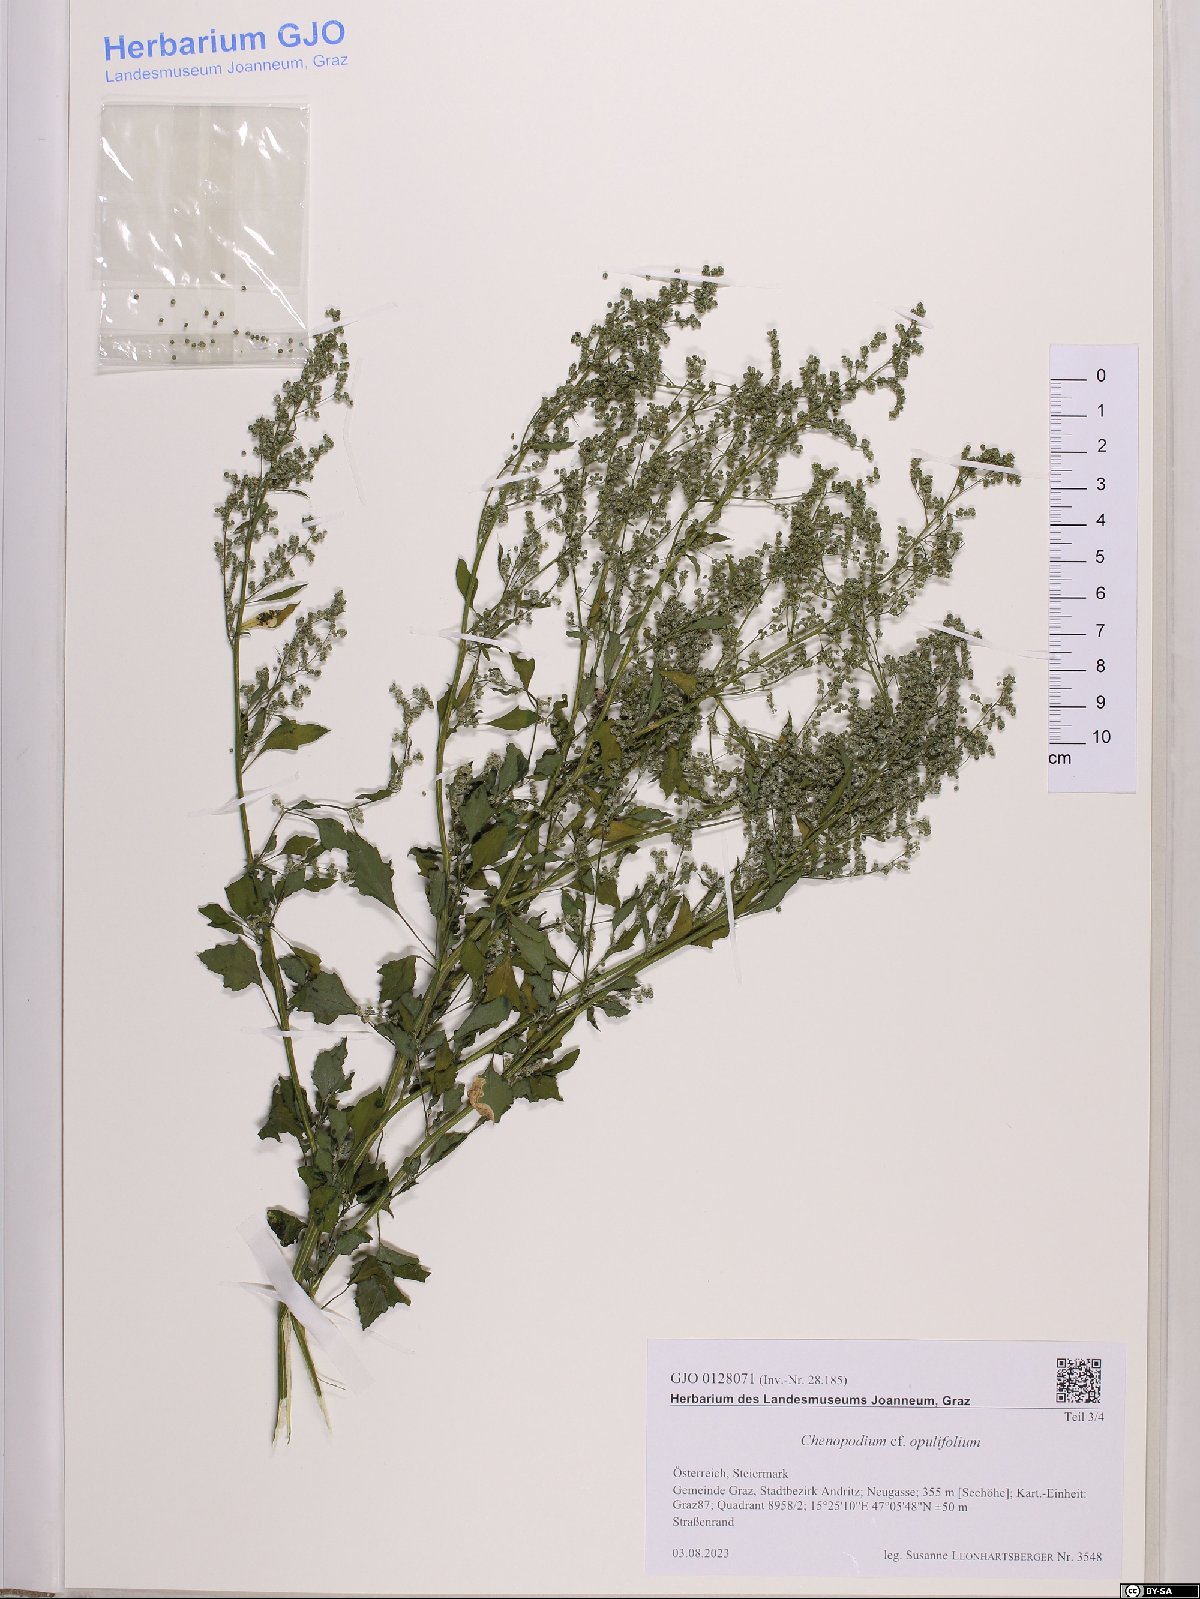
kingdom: Plantae
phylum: Tracheophyta
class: Magnoliopsida
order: Caryophyllales
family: Amaranthaceae
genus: Chenopodium
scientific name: Chenopodium opulifolium
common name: Grey goosefoot
